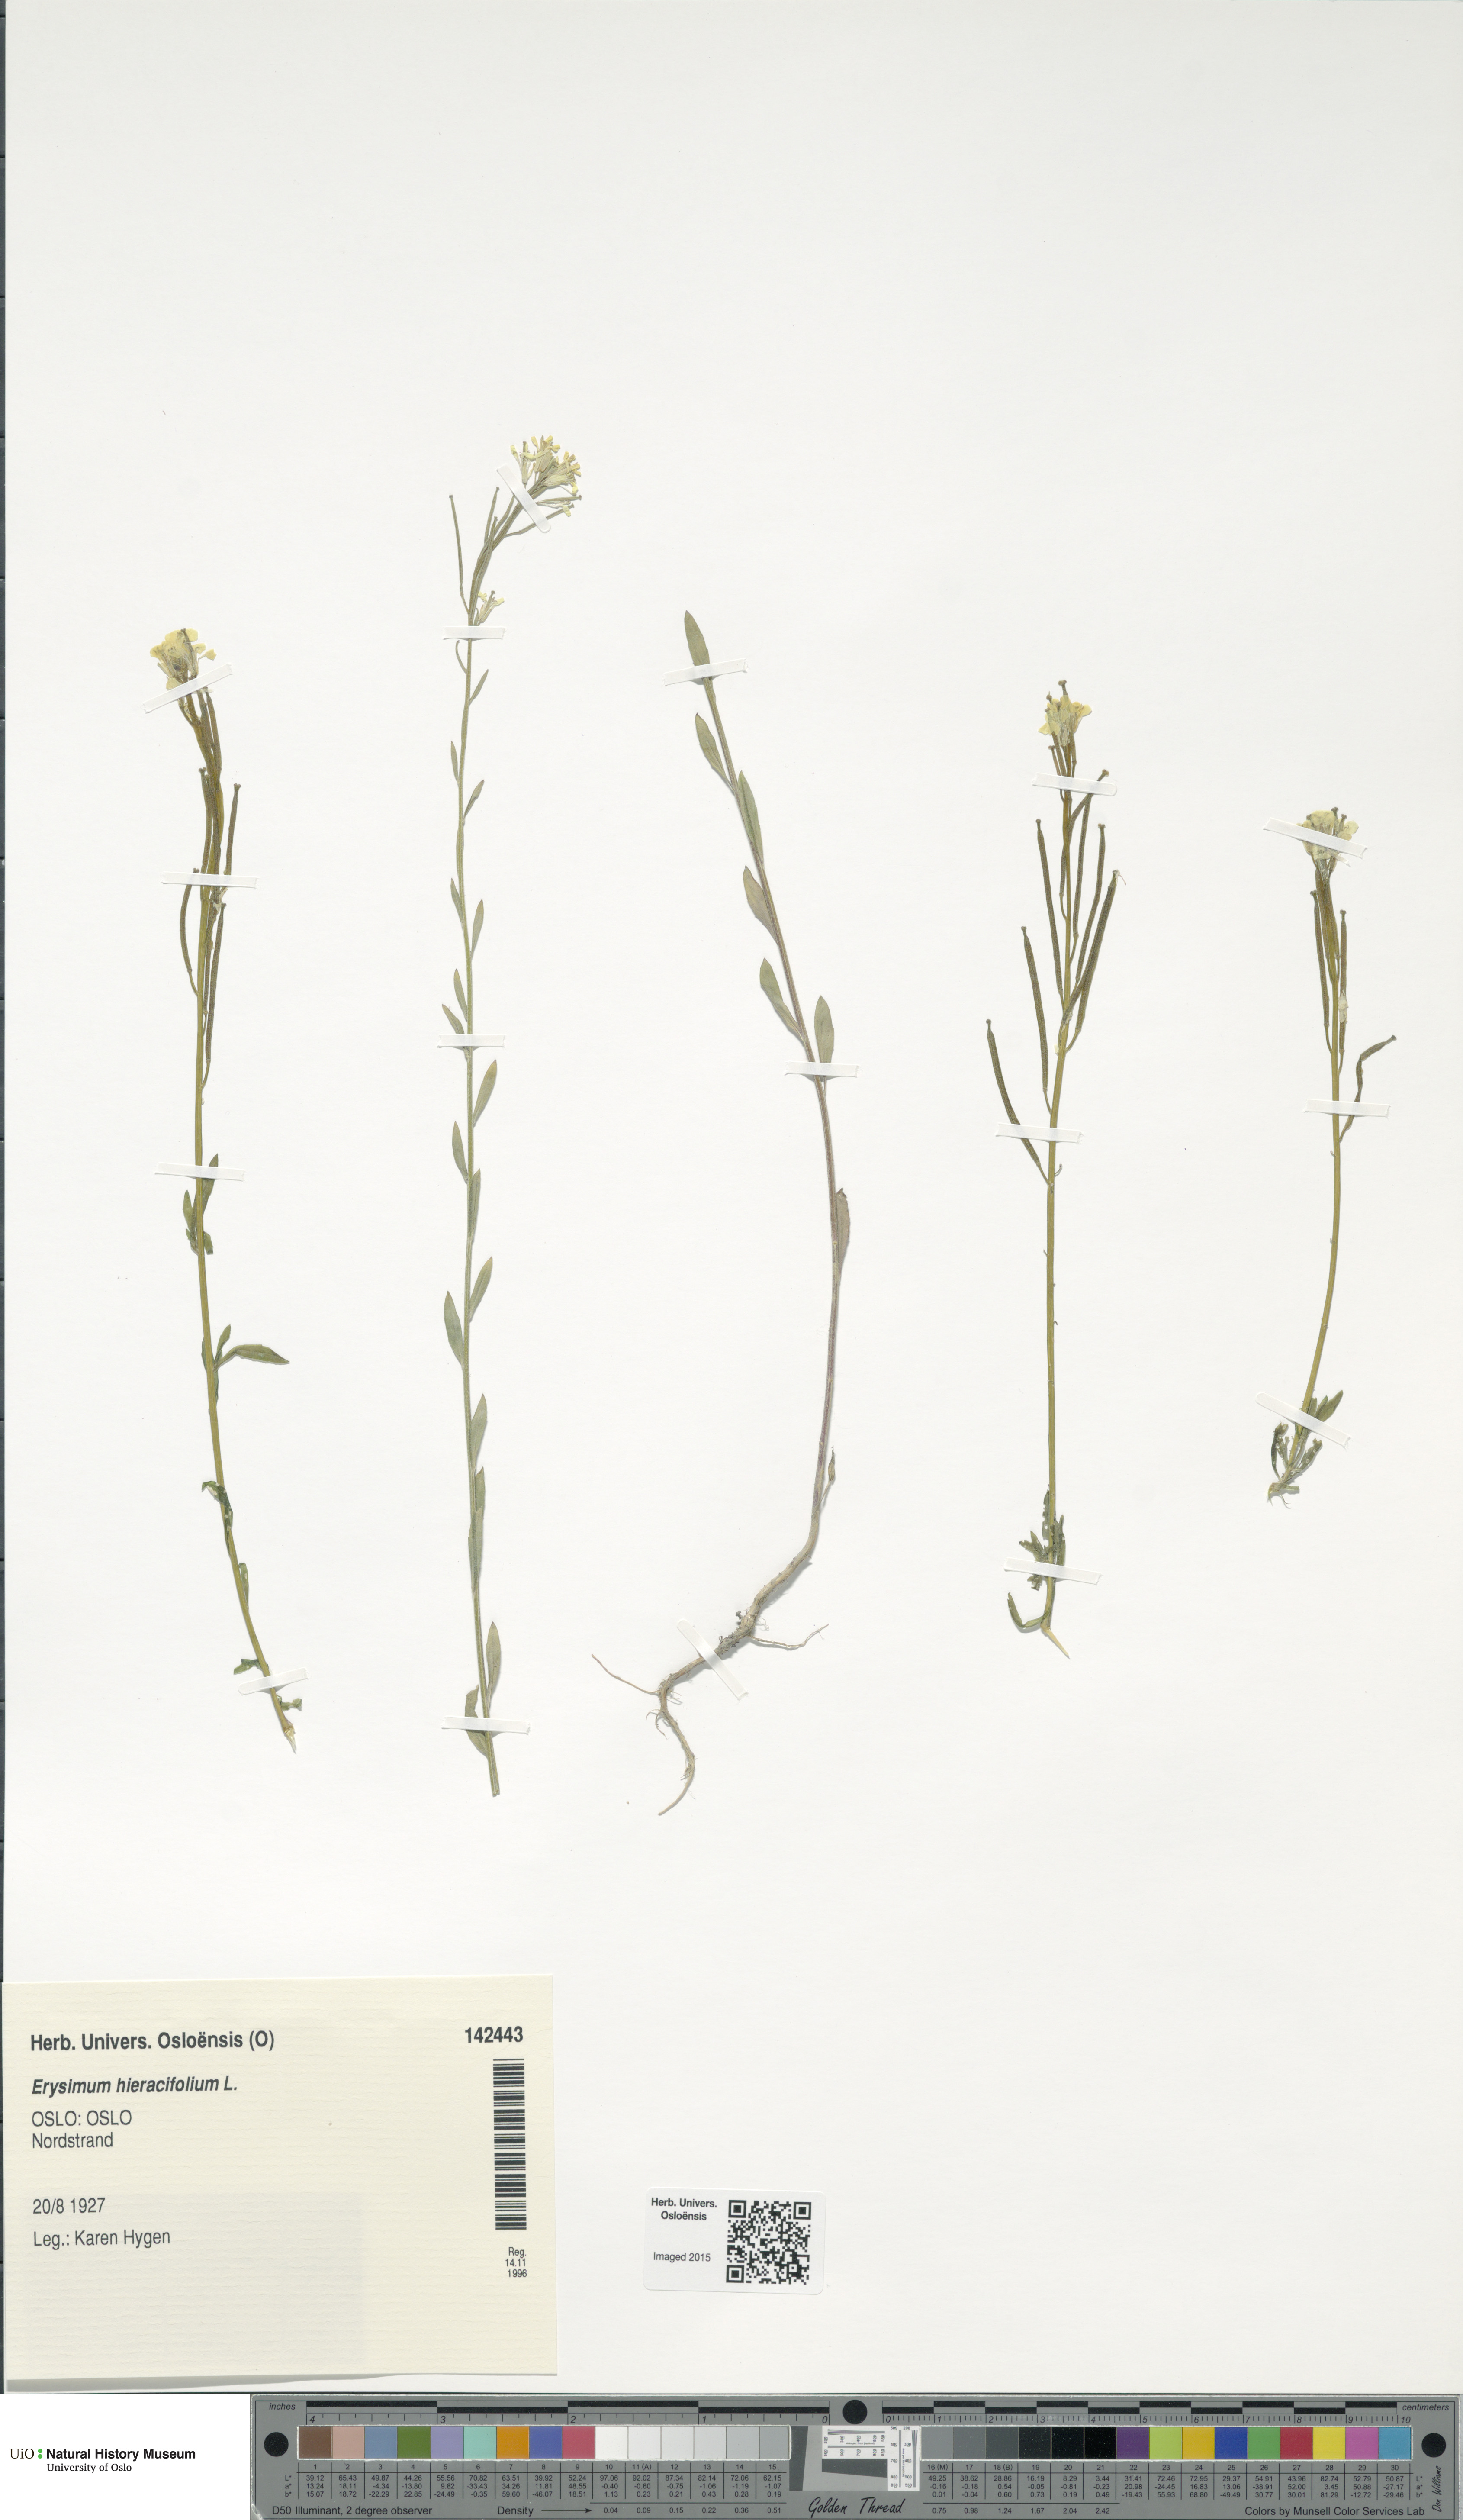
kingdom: Plantae
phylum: Tracheophyta
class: Magnoliopsida
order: Brassicales
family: Brassicaceae
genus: Erysimum
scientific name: Erysimum hieraciifolium
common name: European wallflower
